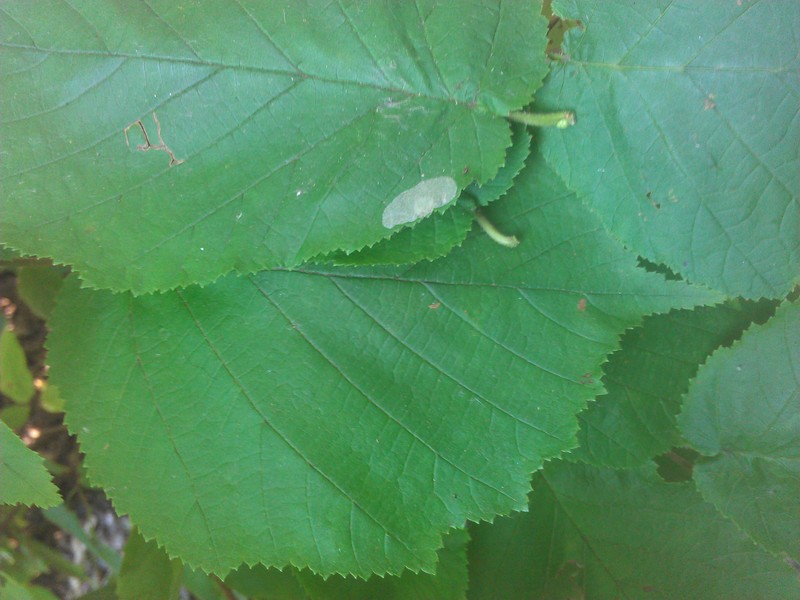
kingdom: Animalia
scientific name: Animalia
